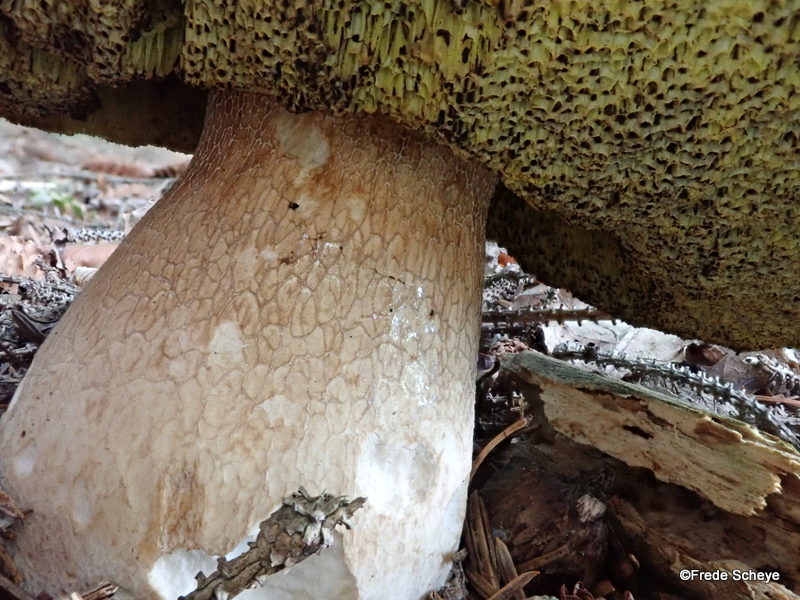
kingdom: Fungi
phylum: Basidiomycota
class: Agaricomycetes
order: Boletales
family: Boletaceae
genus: Boletus
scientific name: Boletus edulis
